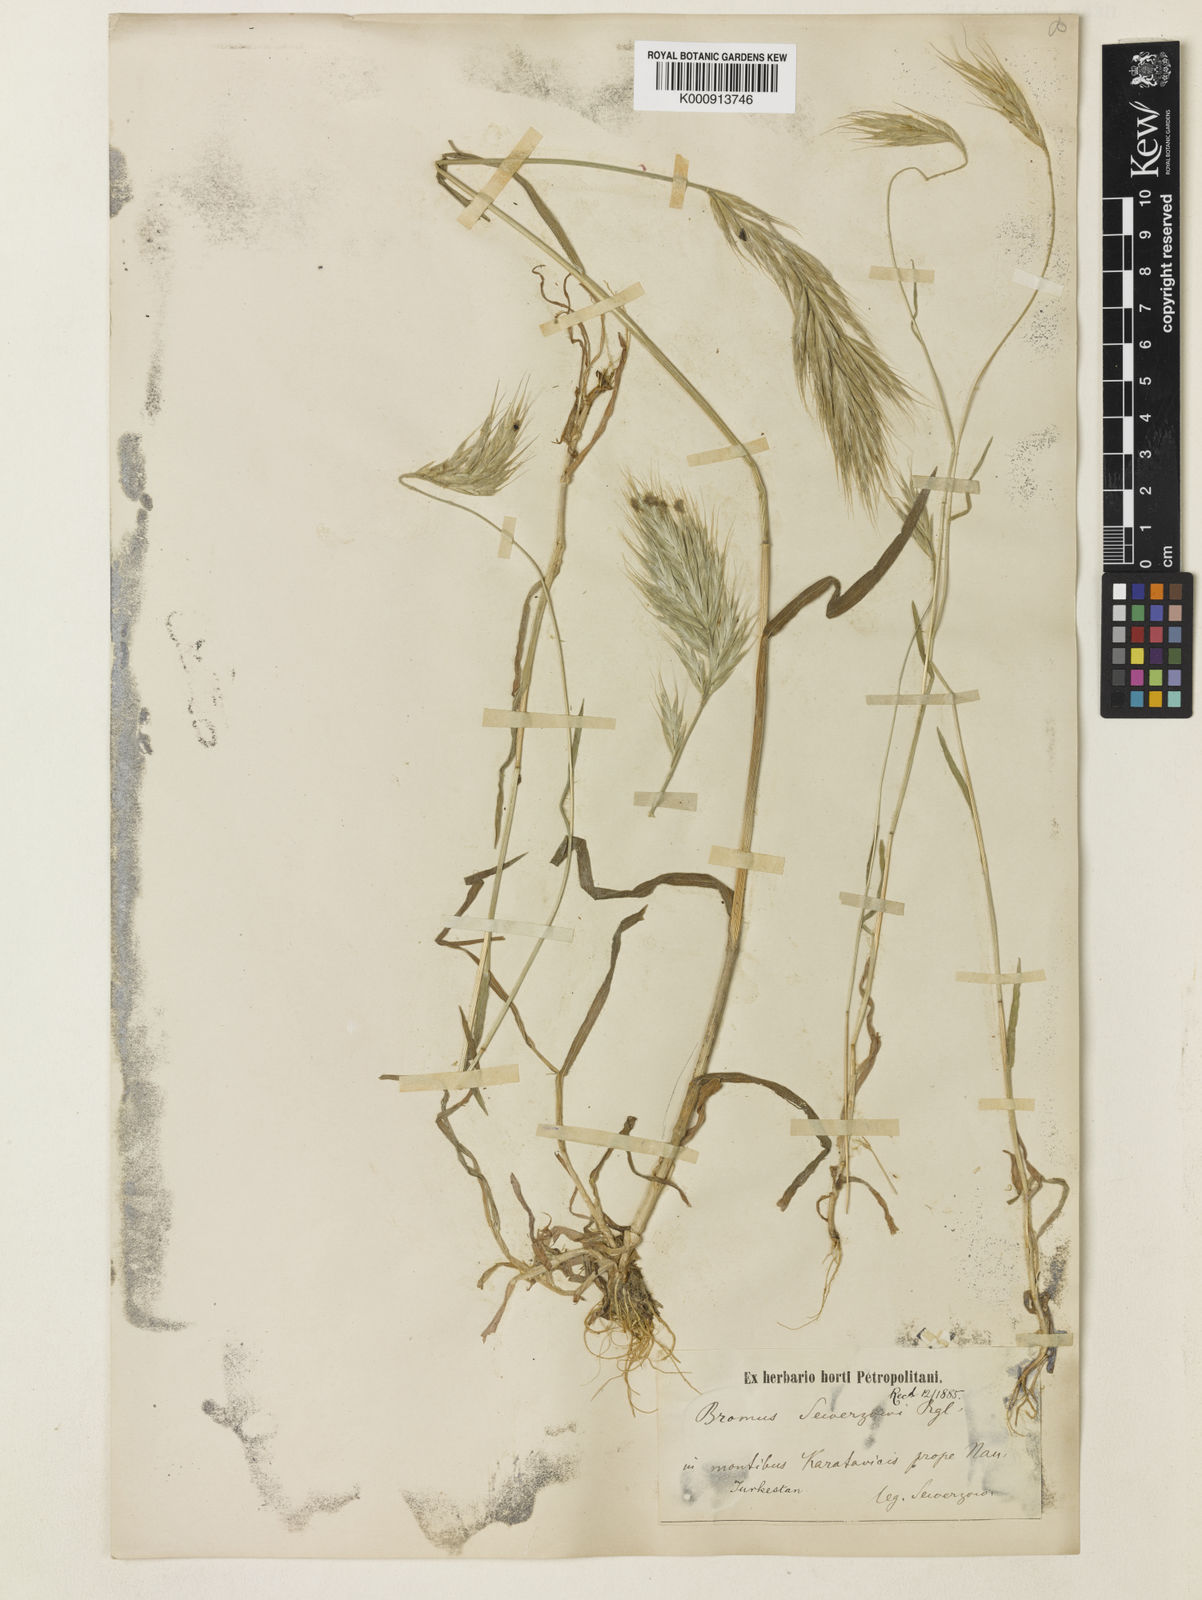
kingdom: Plantae
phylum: Tracheophyta
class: Liliopsida
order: Poales
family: Poaceae
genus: Bromus
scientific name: Bromus sewerzowii
